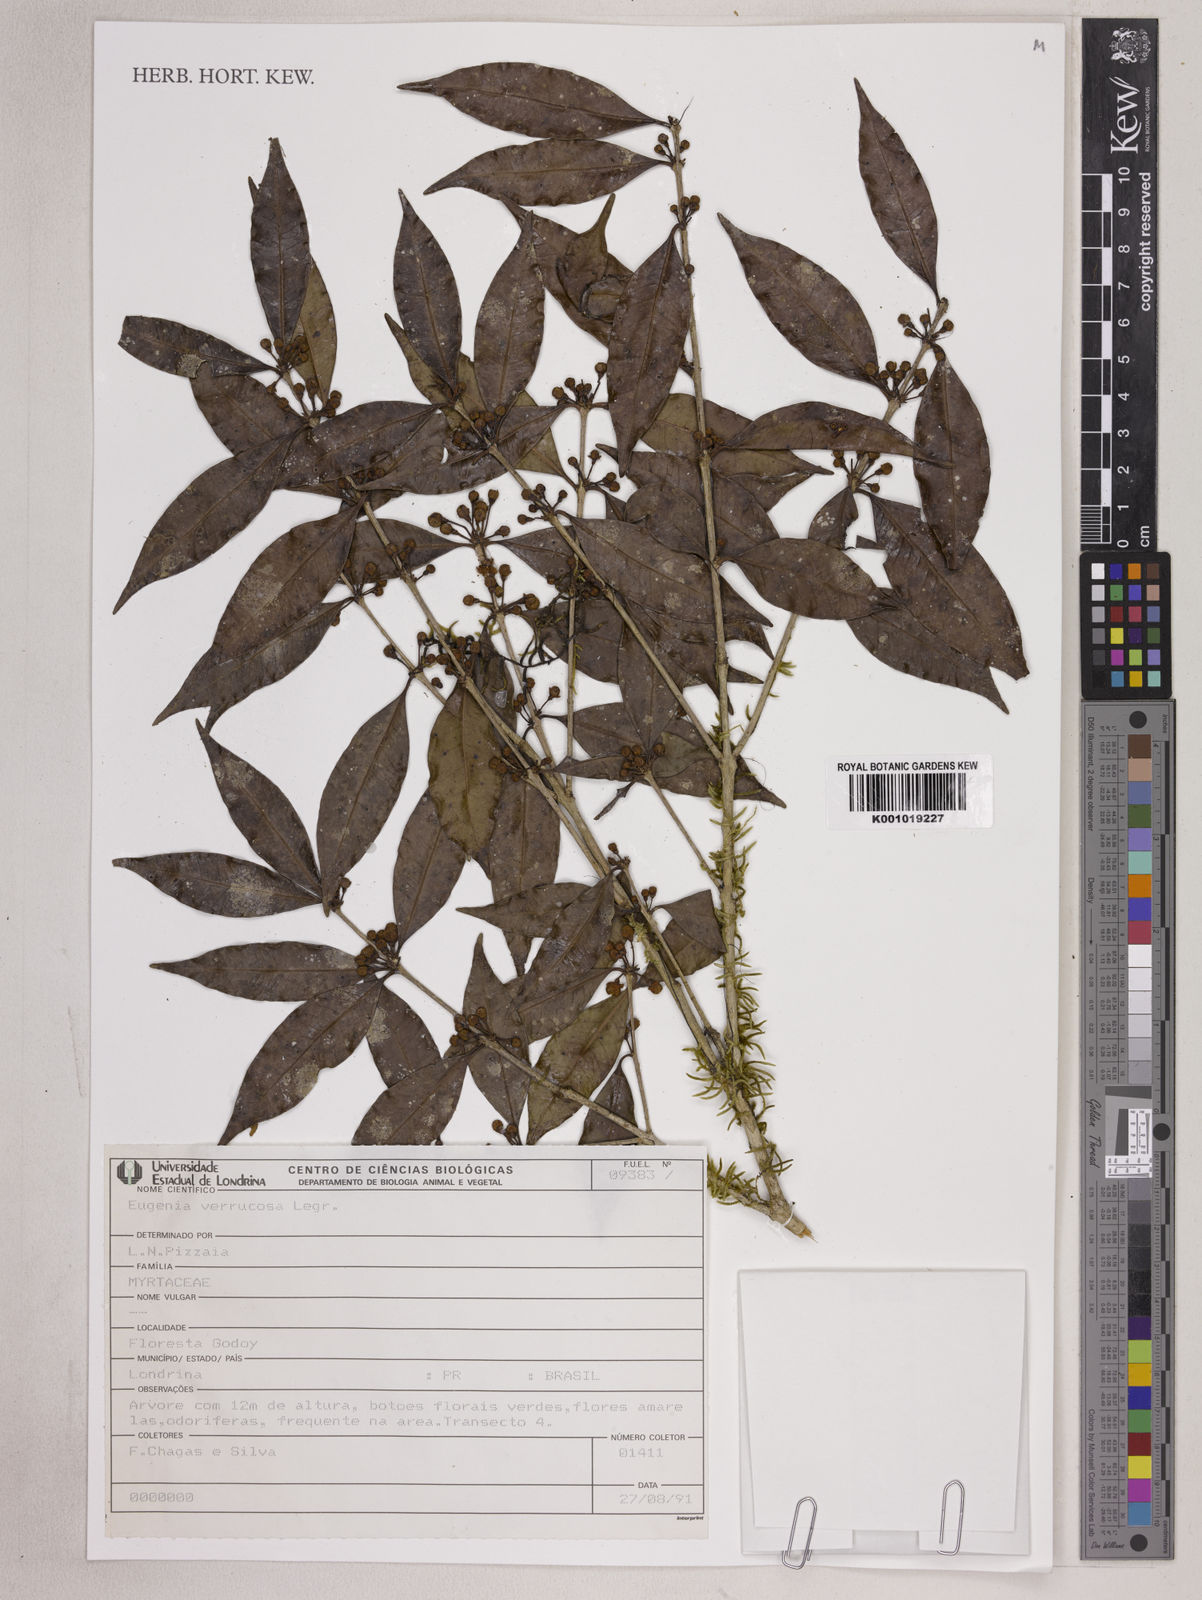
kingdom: Plantae
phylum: Tracheophyta
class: Magnoliopsida
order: Myrtales
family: Myrtaceae
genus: Eugenia
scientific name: Eugenia neoverrucosa
